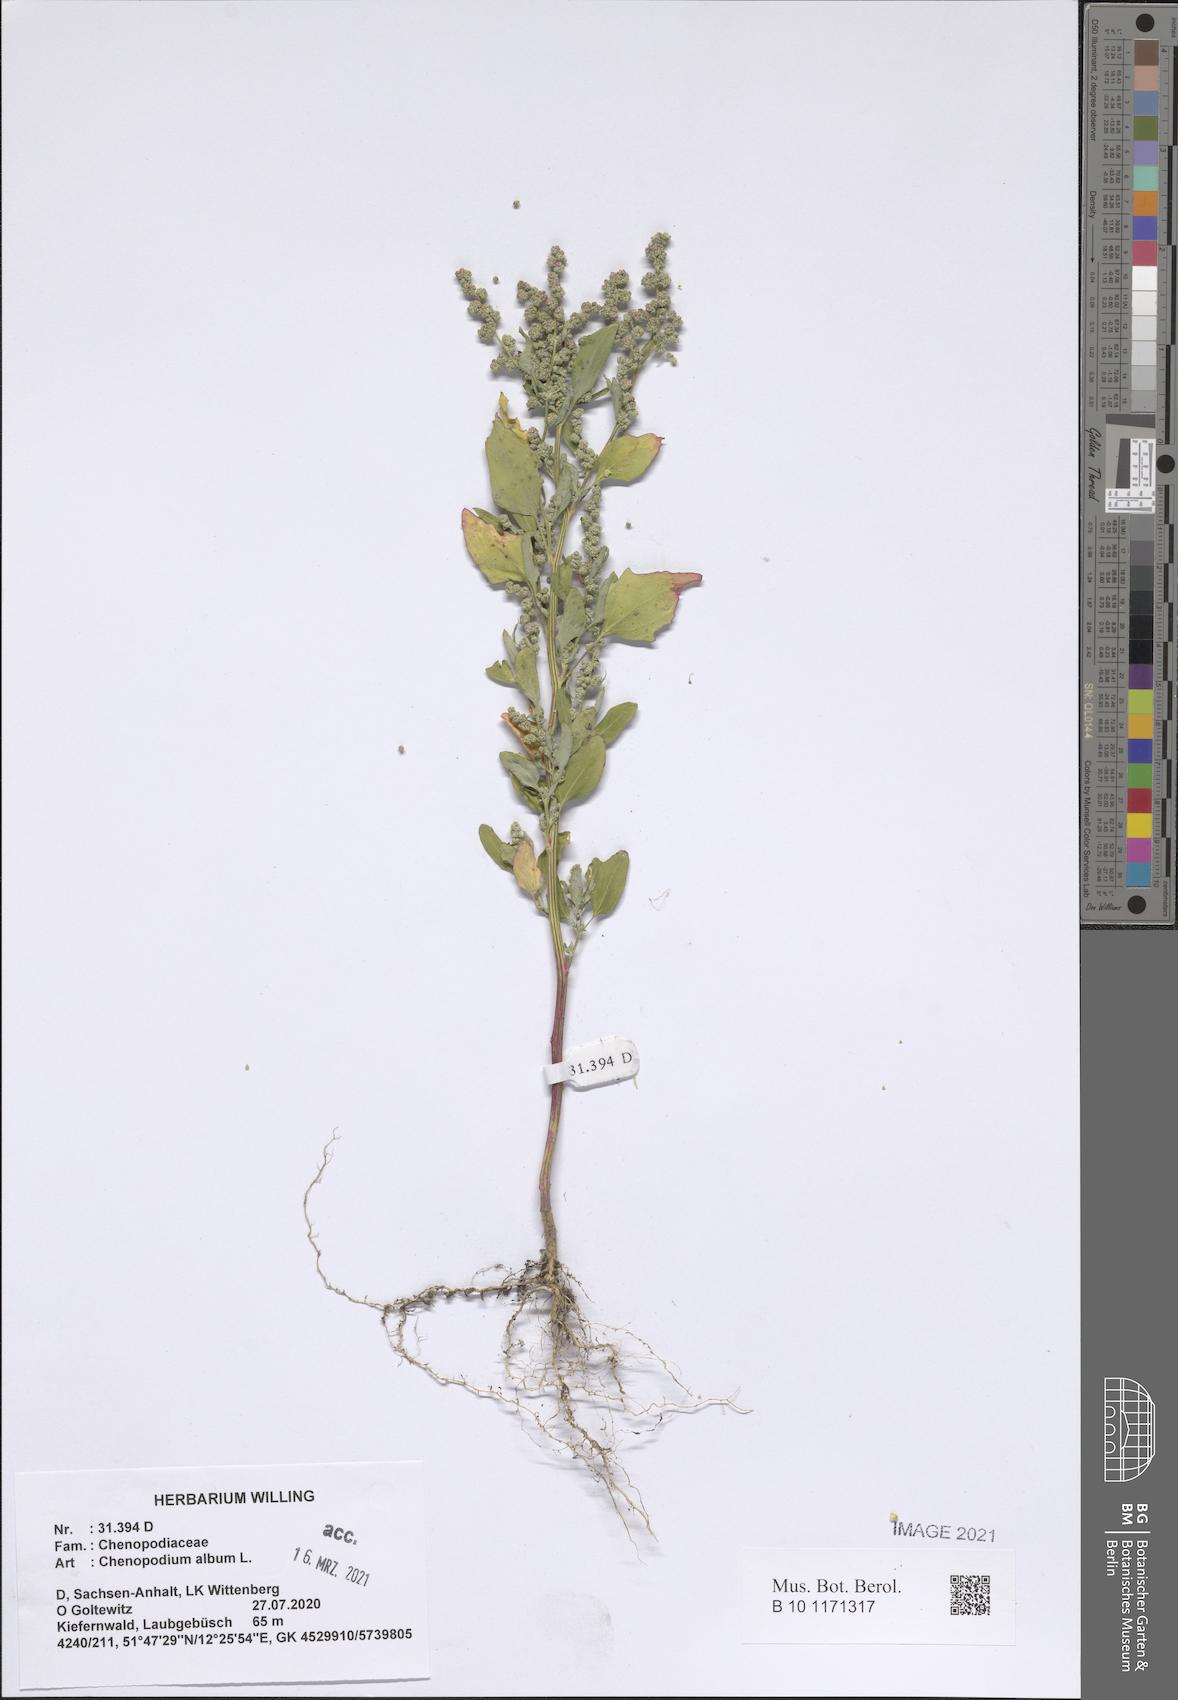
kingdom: Plantae
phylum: Tracheophyta
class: Magnoliopsida
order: Caryophyllales
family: Amaranthaceae
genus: Chenopodium
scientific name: Chenopodium album
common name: Fat-hen
